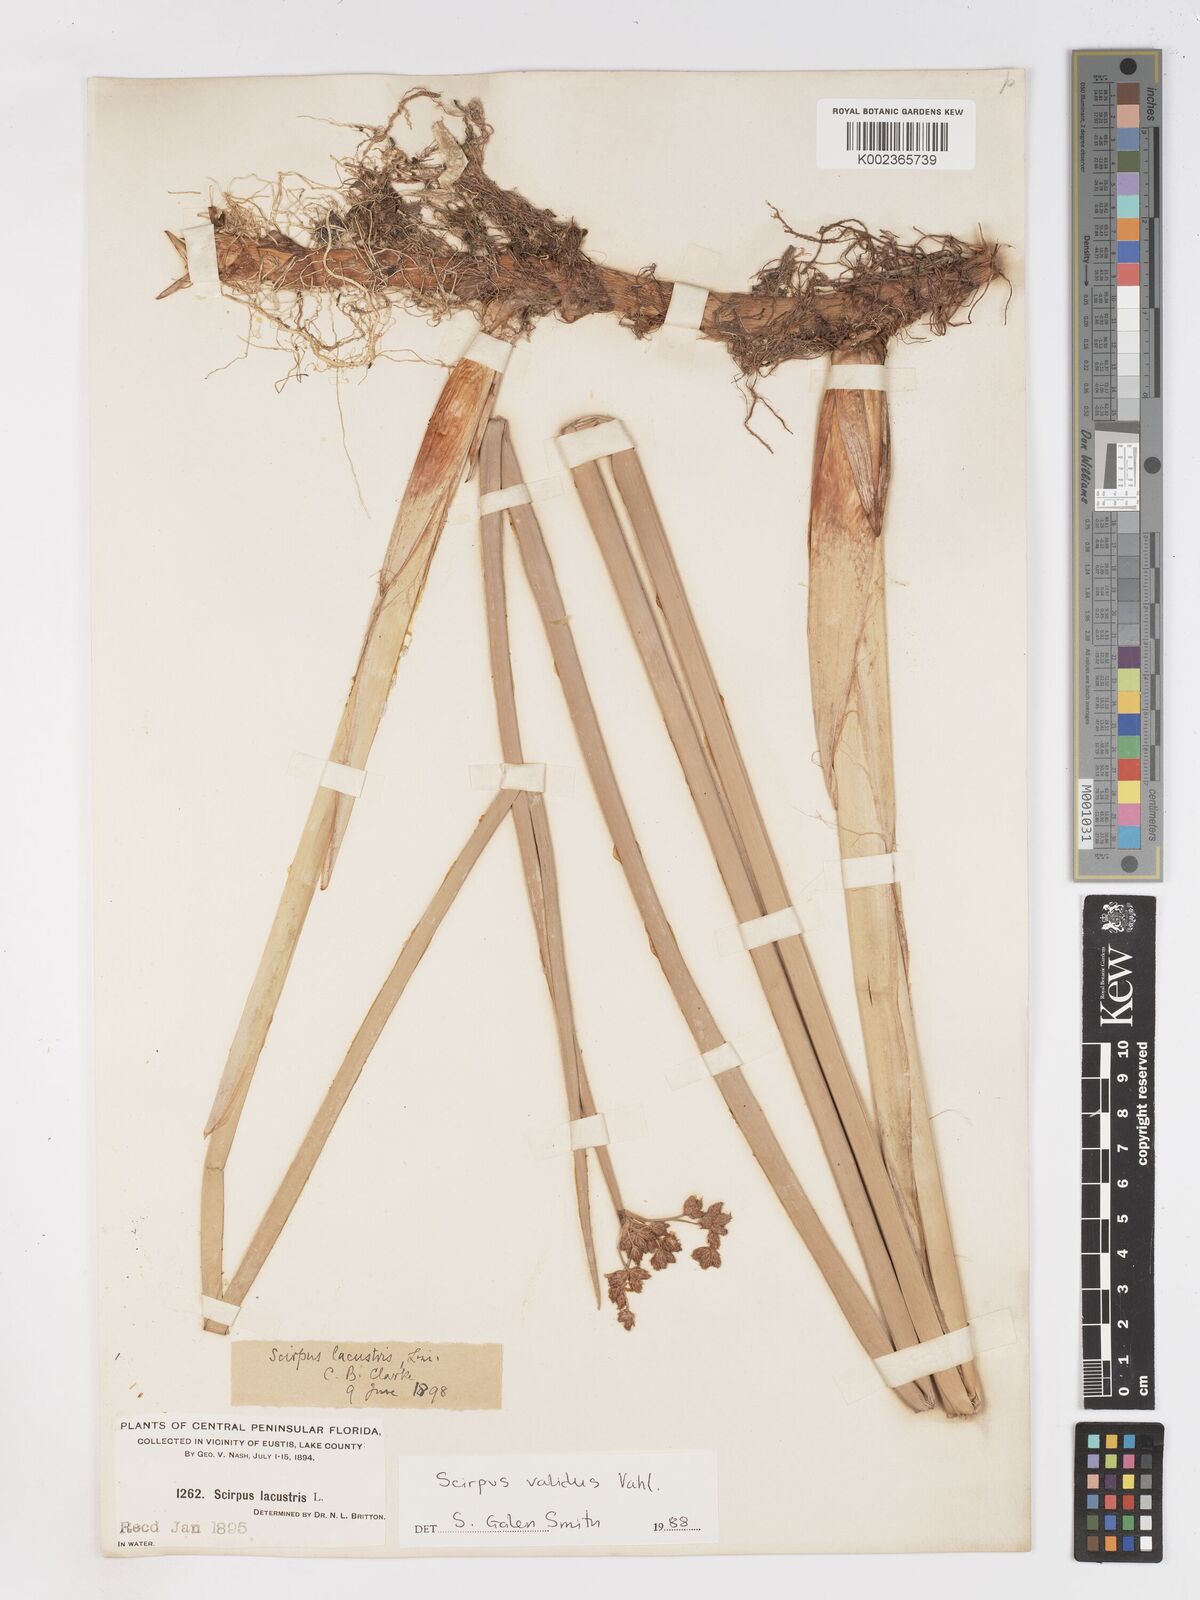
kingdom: Plantae
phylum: Tracheophyta
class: Liliopsida
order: Poales
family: Cyperaceae
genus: Schoenoplectus
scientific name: Schoenoplectus lacustris
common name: Common club-rush
